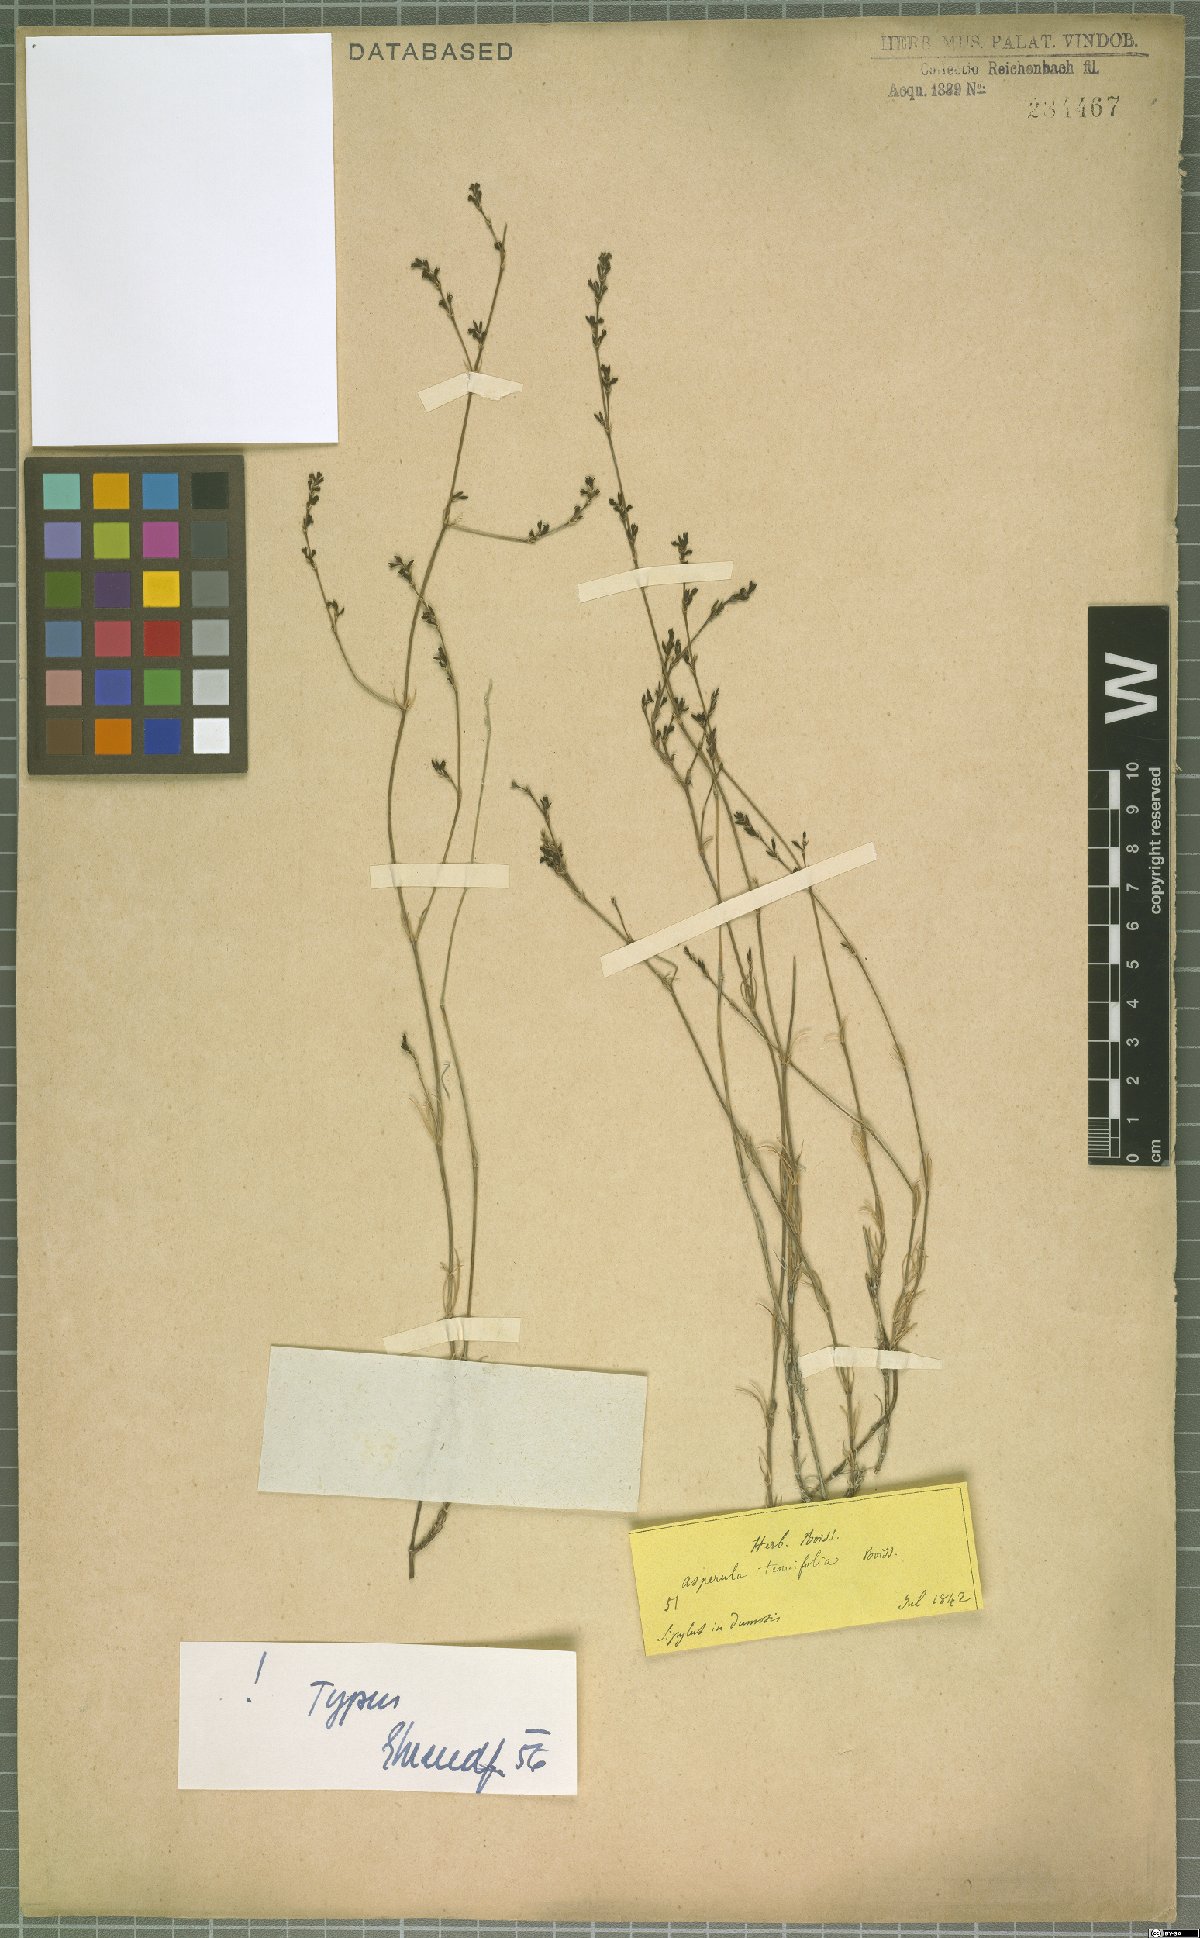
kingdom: Plantae
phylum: Tracheophyta
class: Magnoliopsida
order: Gentianales
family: Rubiaceae
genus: Cynanchica
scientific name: Cynanchica tenuifolia
